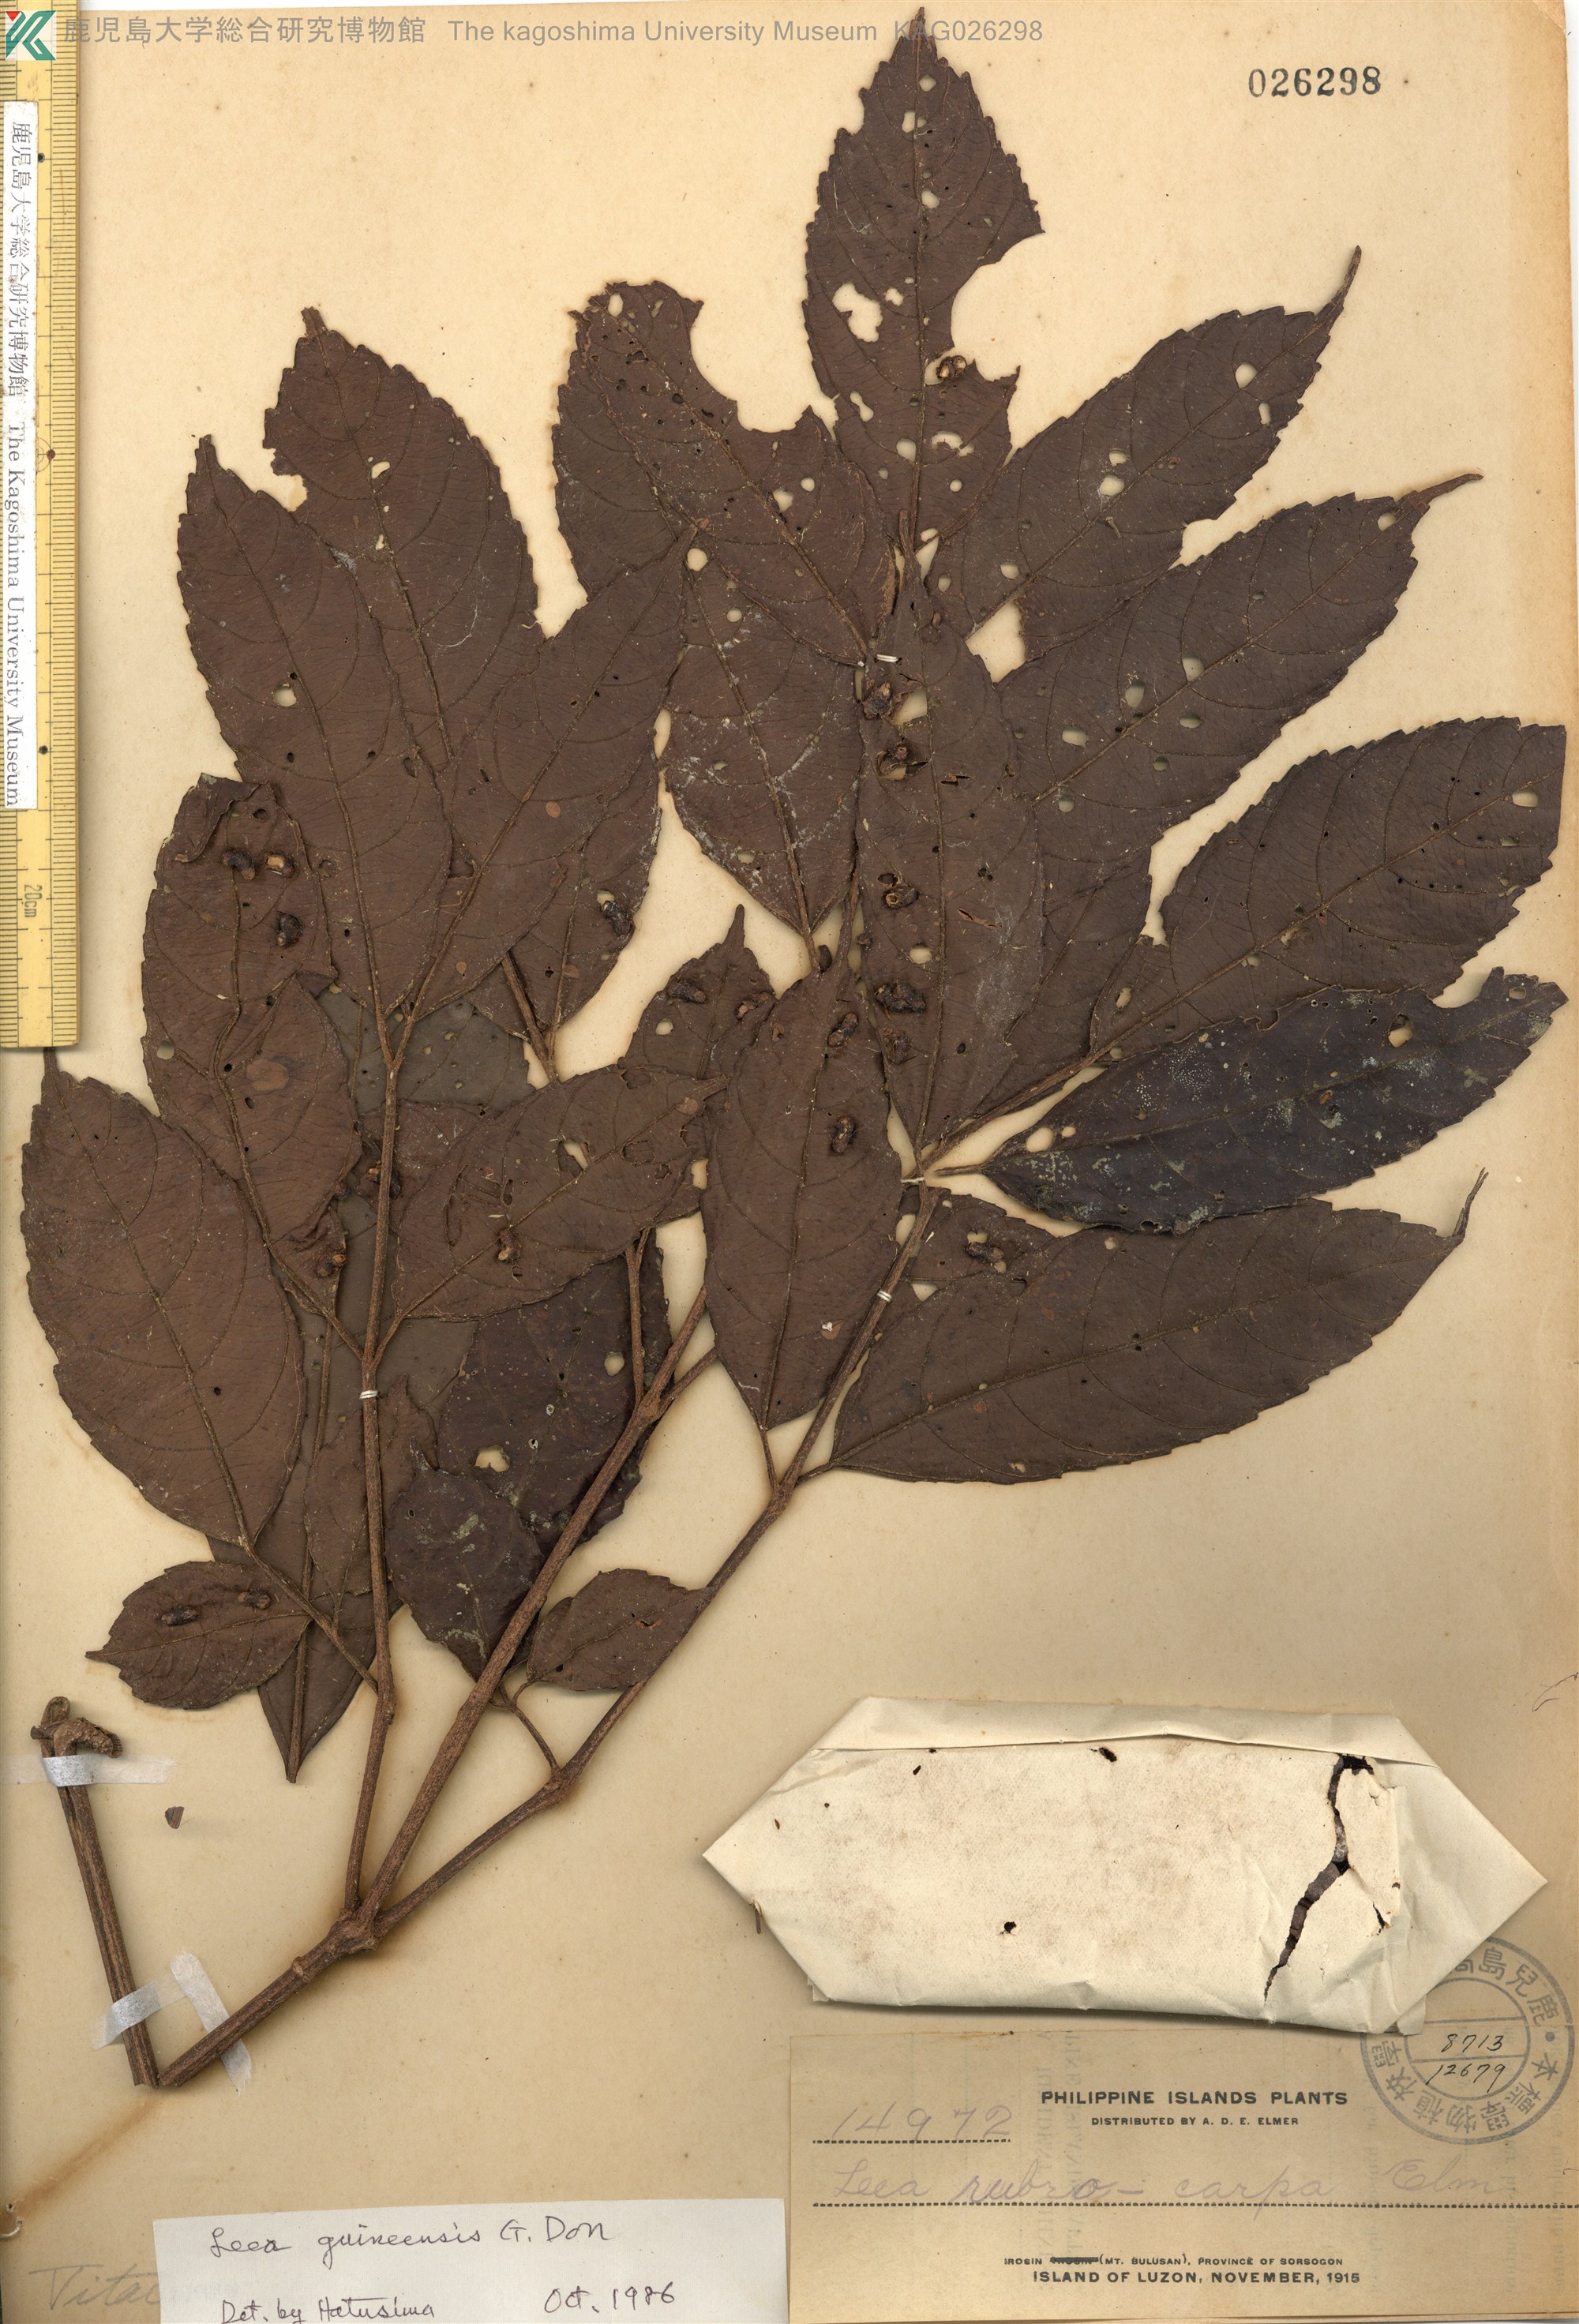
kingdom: Plantae
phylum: Tracheophyta
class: Magnoliopsida
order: Vitales
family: Vitaceae
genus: Leea
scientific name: Leea guineensis
